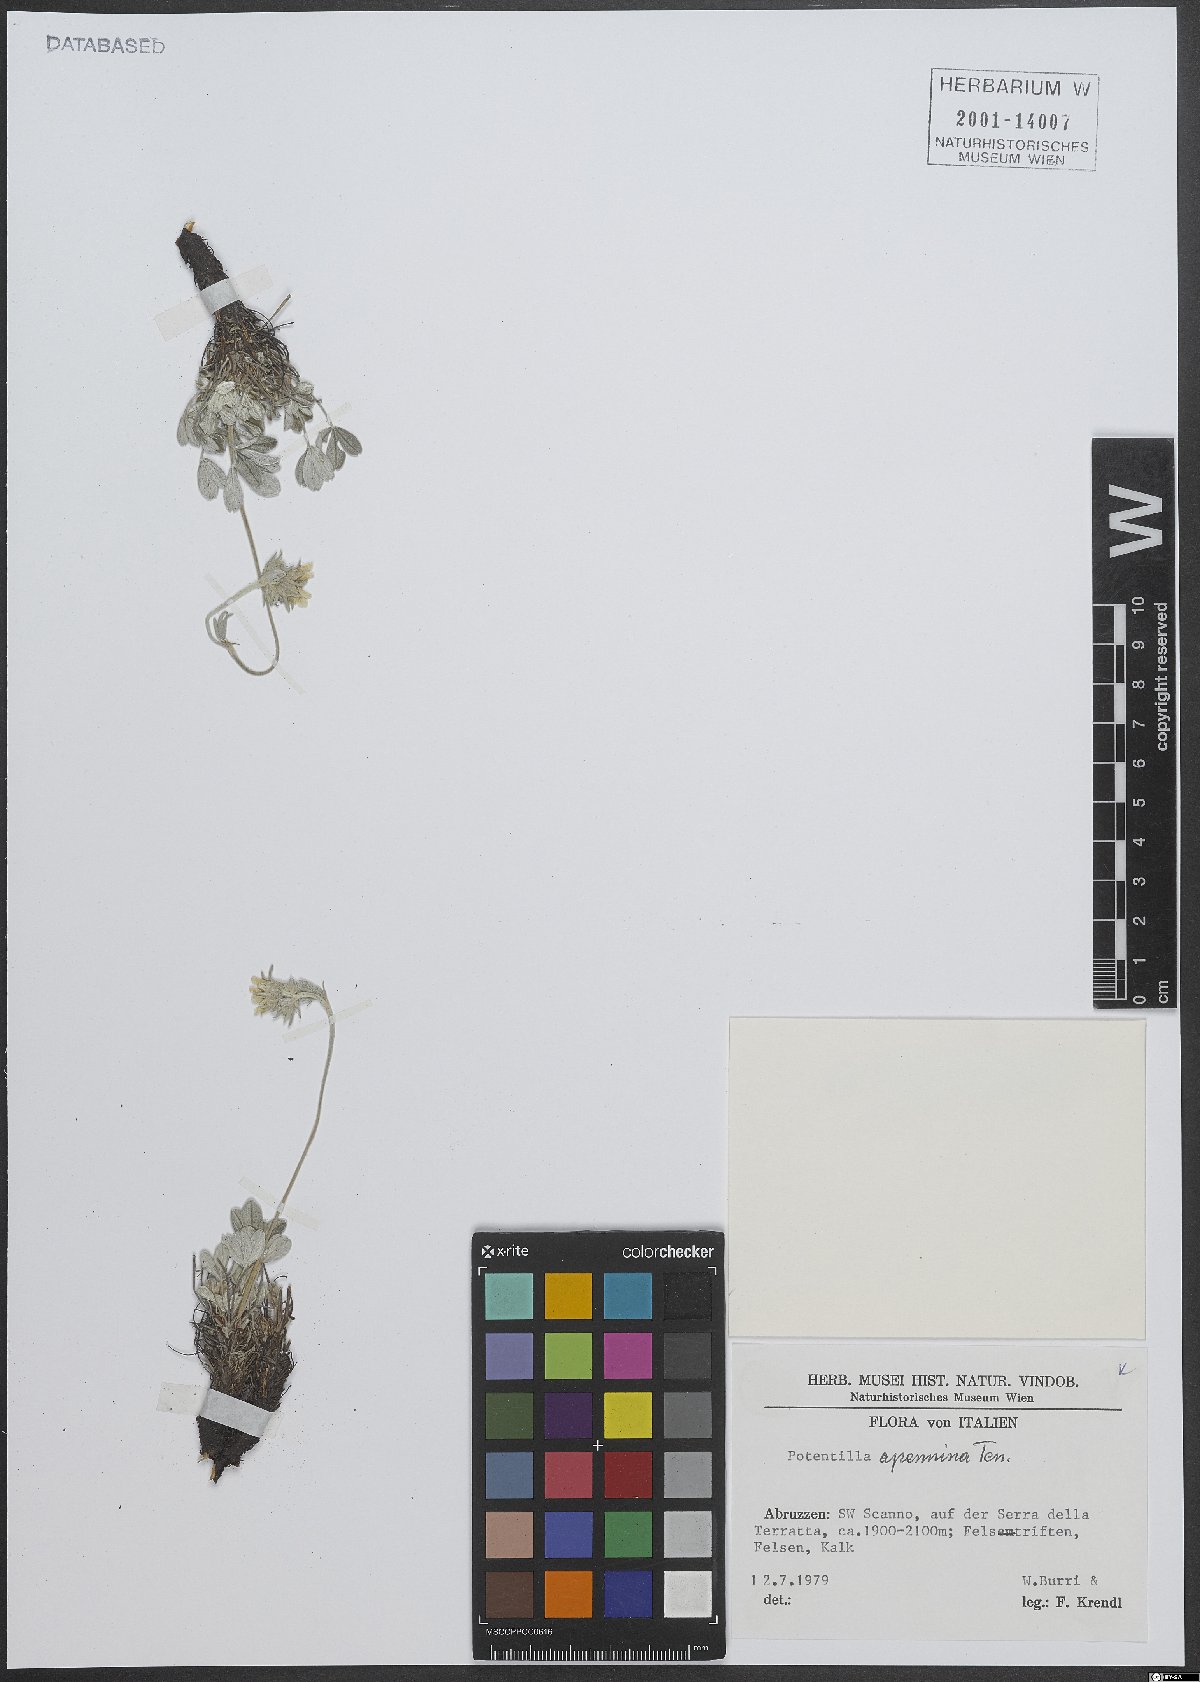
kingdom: Plantae
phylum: Tracheophyta
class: Magnoliopsida
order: Rosales
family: Rosaceae
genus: Potentilla
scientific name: Potentilla apennina
